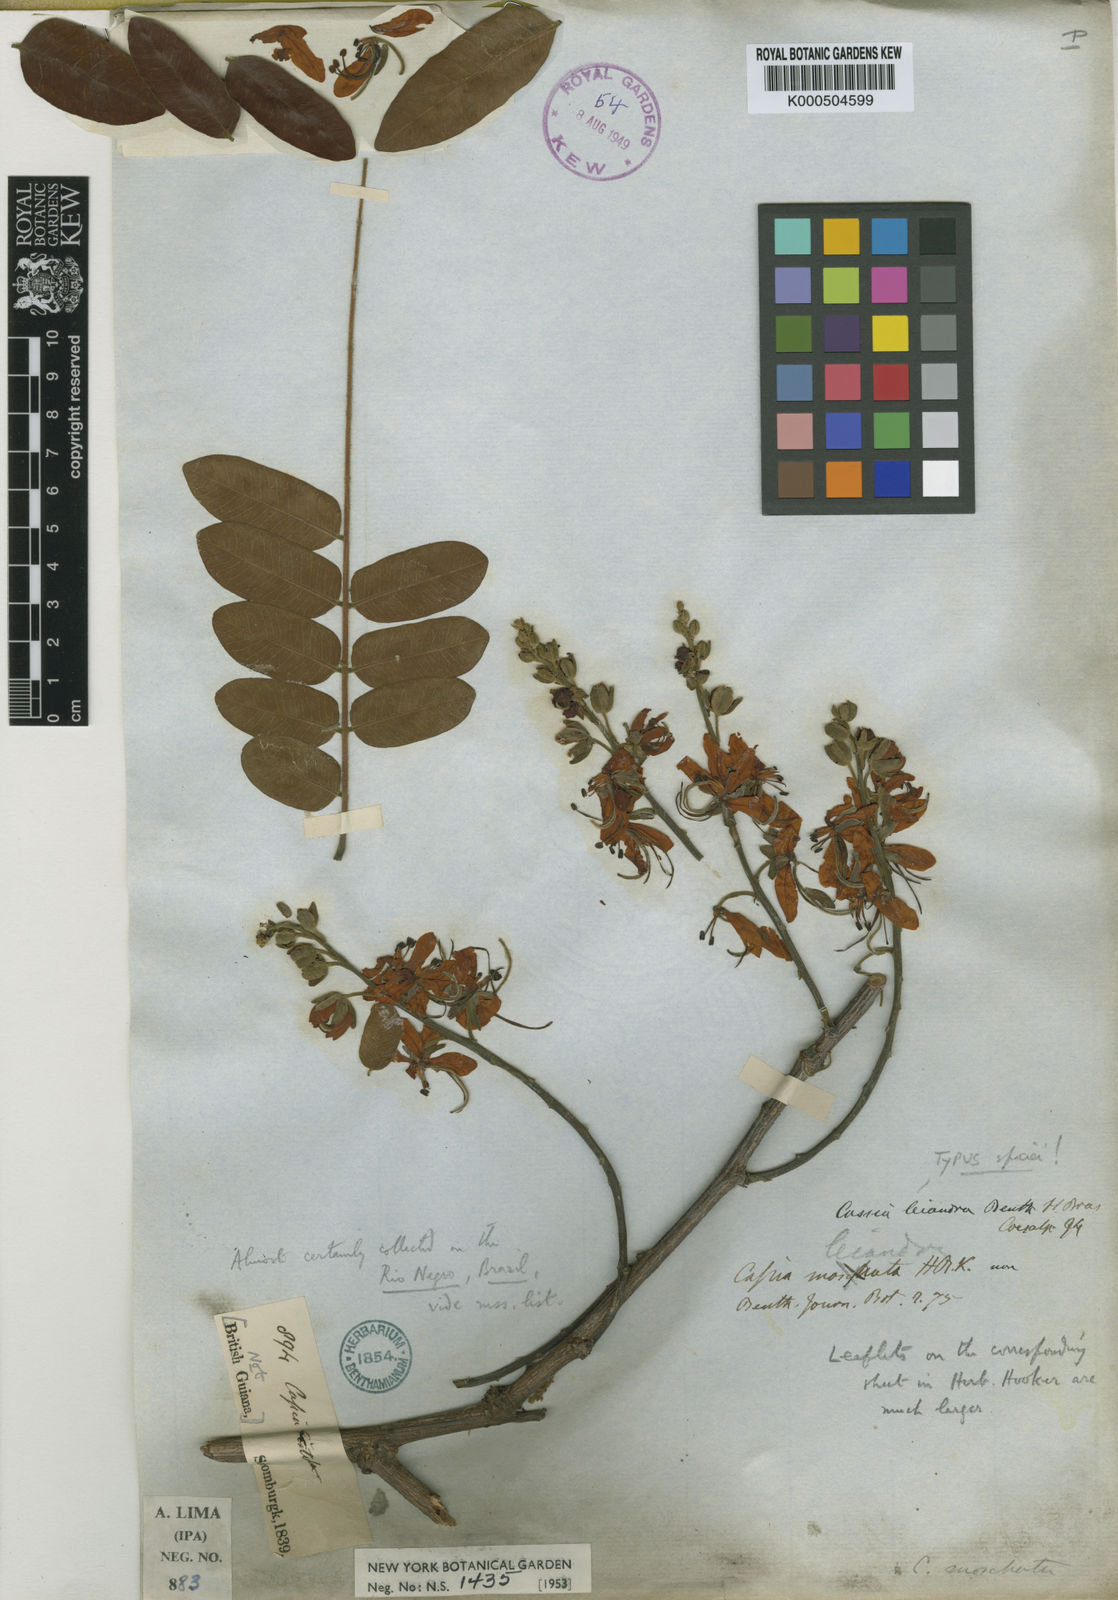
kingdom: Plantae
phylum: Tracheophyta
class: Magnoliopsida
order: Fabales
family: Fabaceae
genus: Cassia
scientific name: Cassia fistula
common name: Golden shower
